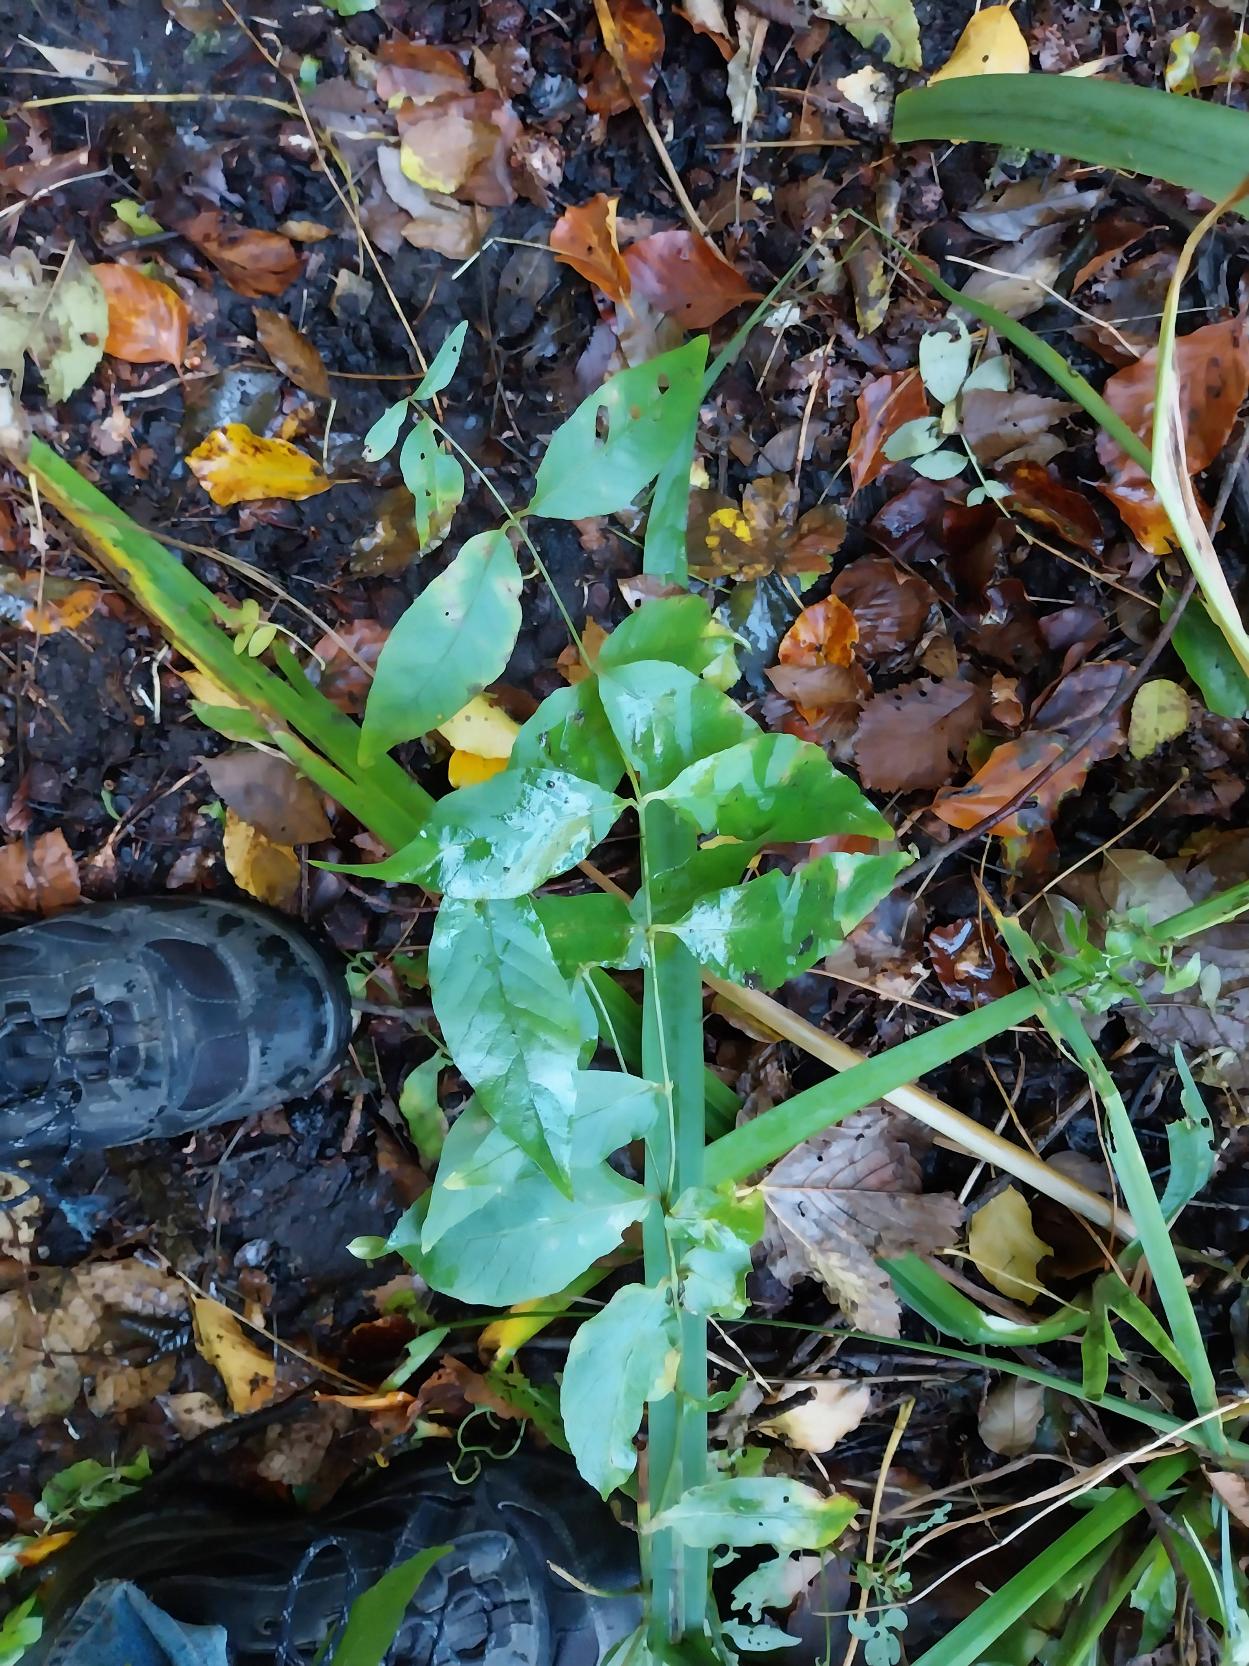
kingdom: Plantae
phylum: Tracheophyta
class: Magnoliopsida
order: Ericales
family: Primulaceae
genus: Lysimachia
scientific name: Lysimachia vulgaris
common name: Almindelig fredløs
